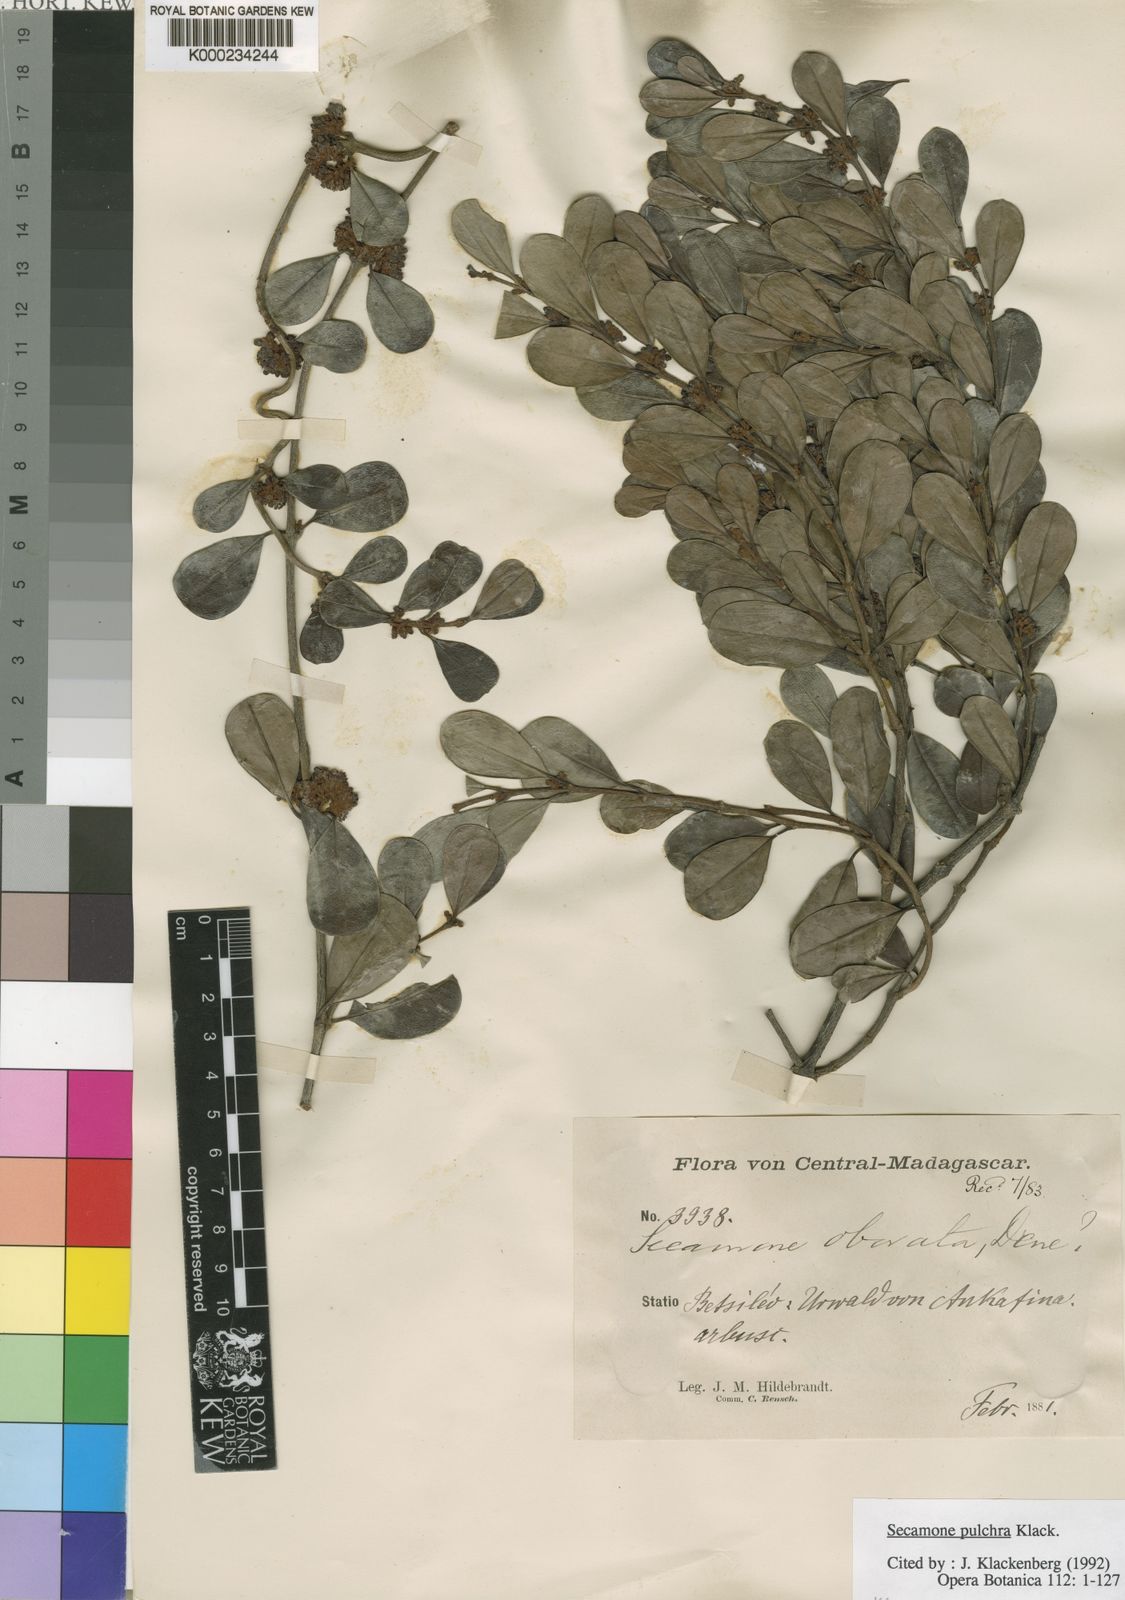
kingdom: Plantae
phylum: Tracheophyta
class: Magnoliopsida
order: Gentianales
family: Apocynaceae
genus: Secamone
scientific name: Secamone pulchra
